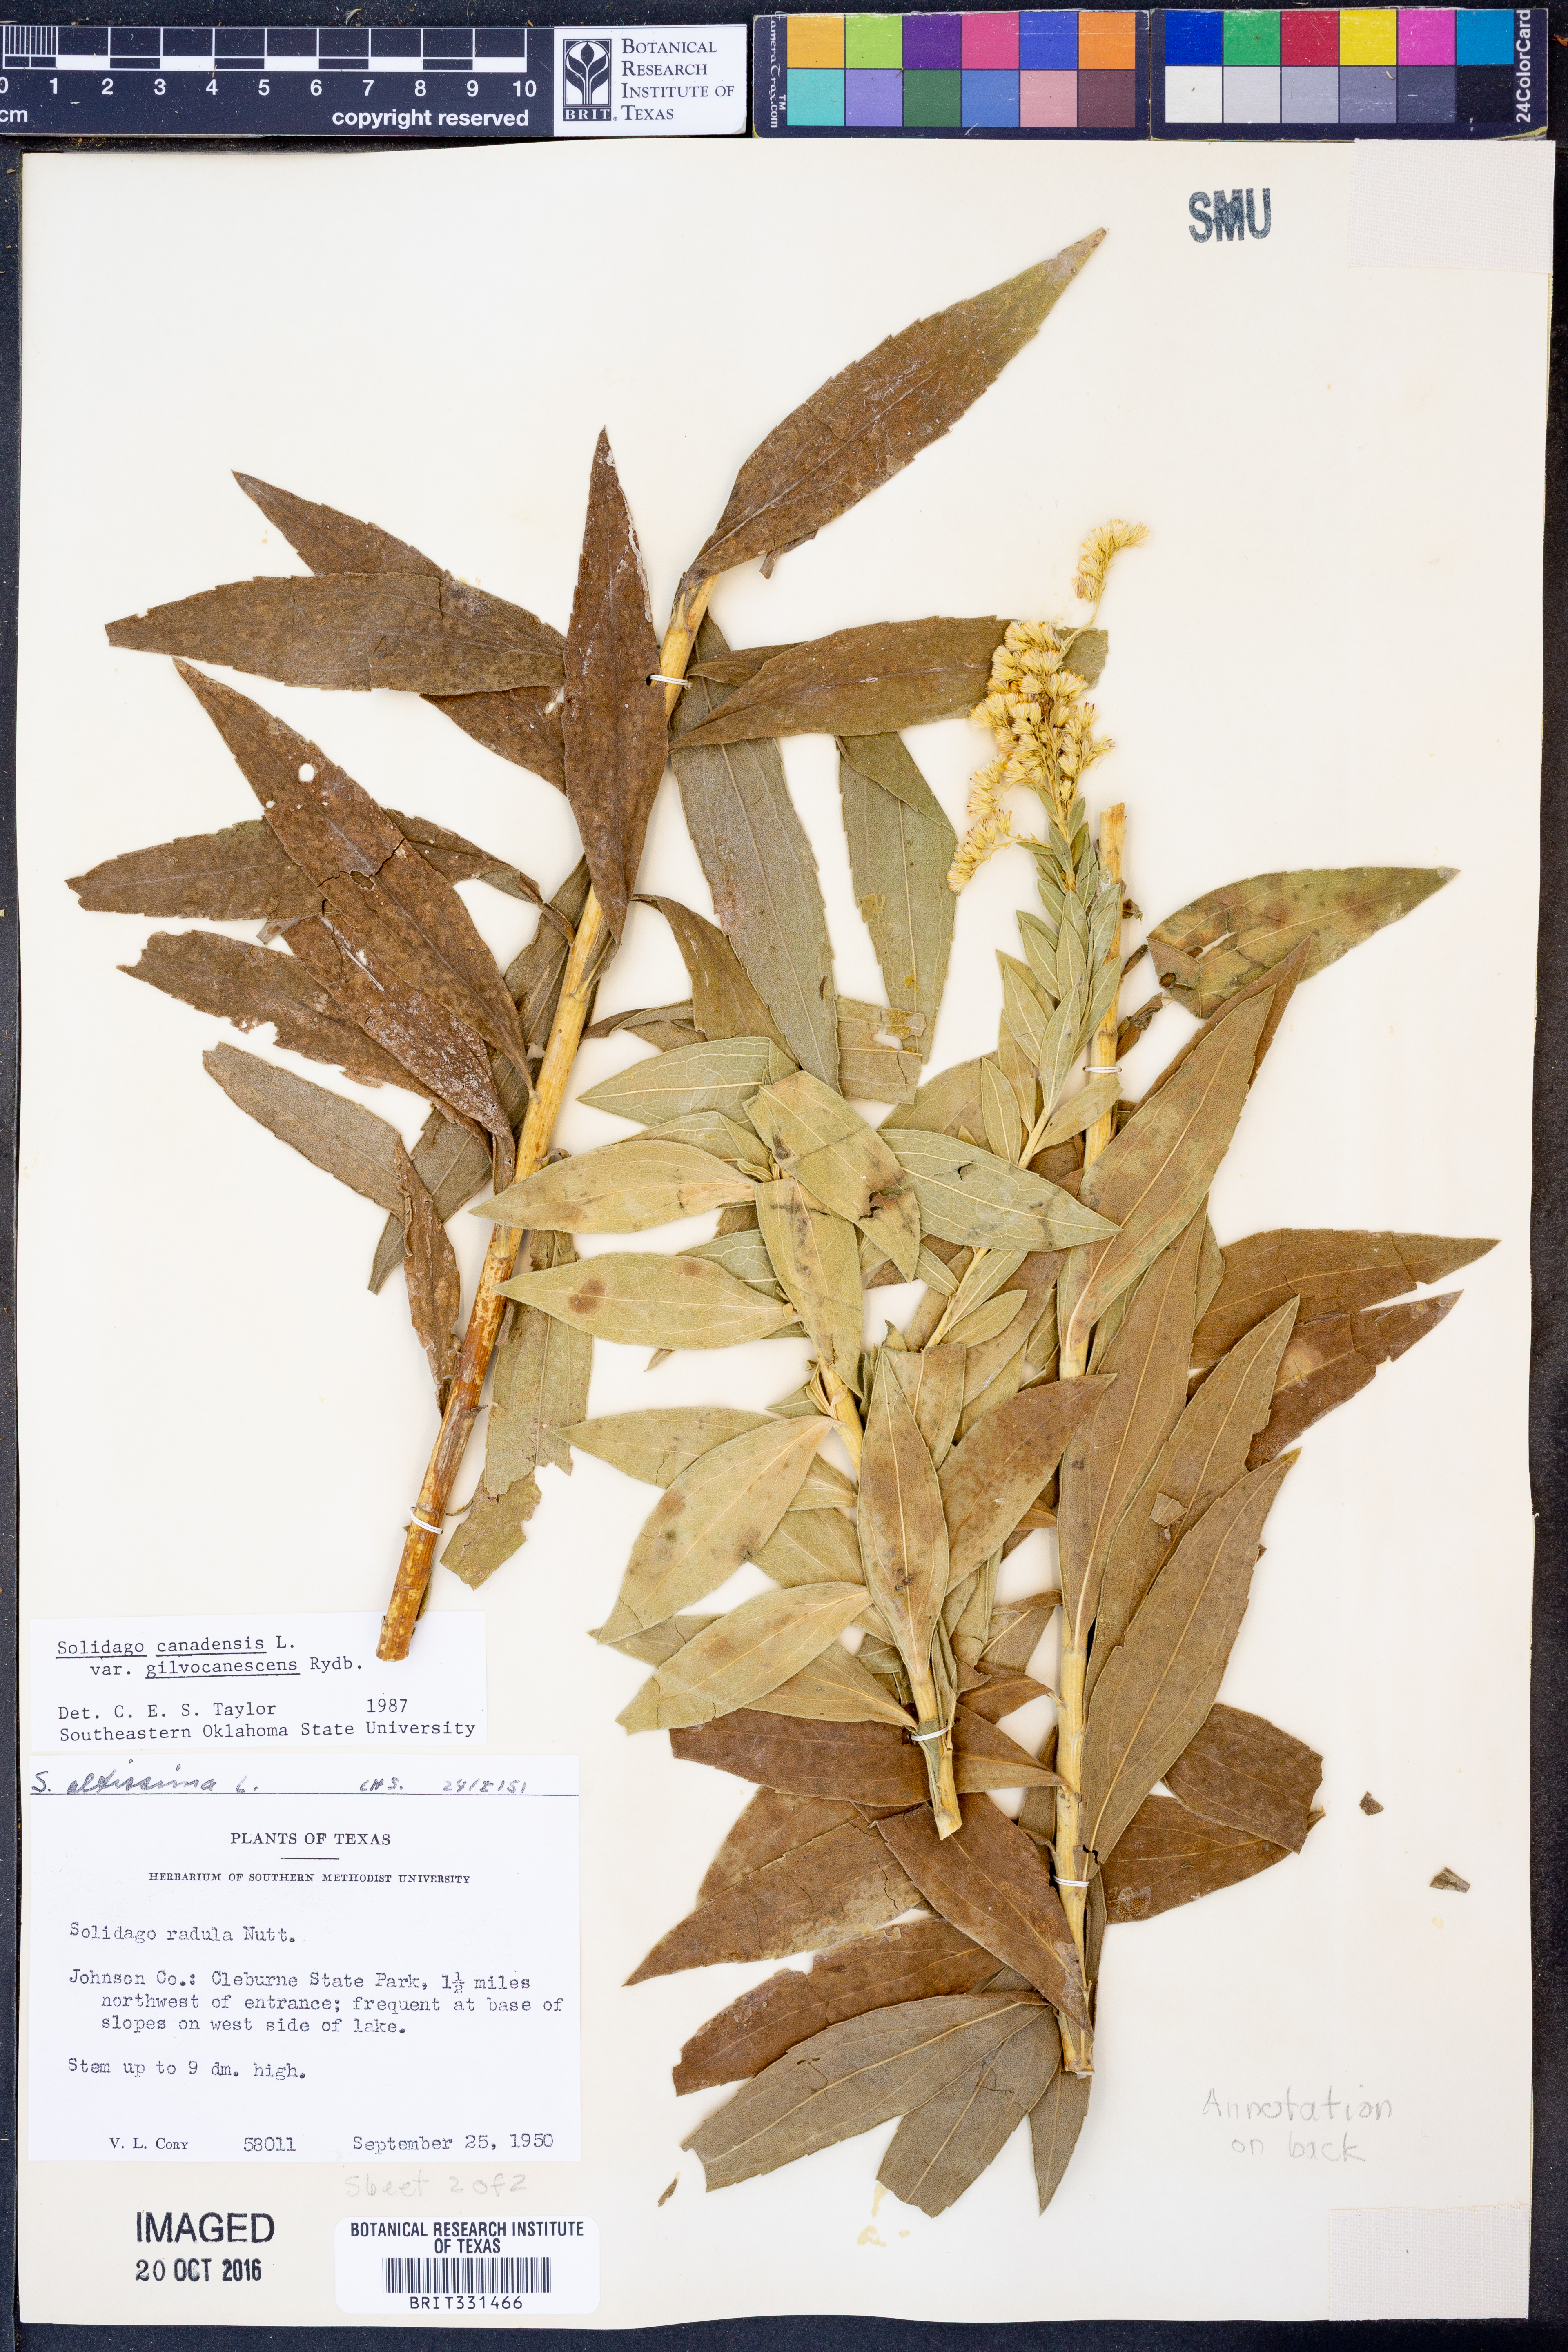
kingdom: Plantae
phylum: Tracheophyta
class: Magnoliopsida
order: Asterales
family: Asteraceae
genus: Solidago
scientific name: Solidago altissima
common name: Late goldenrod
